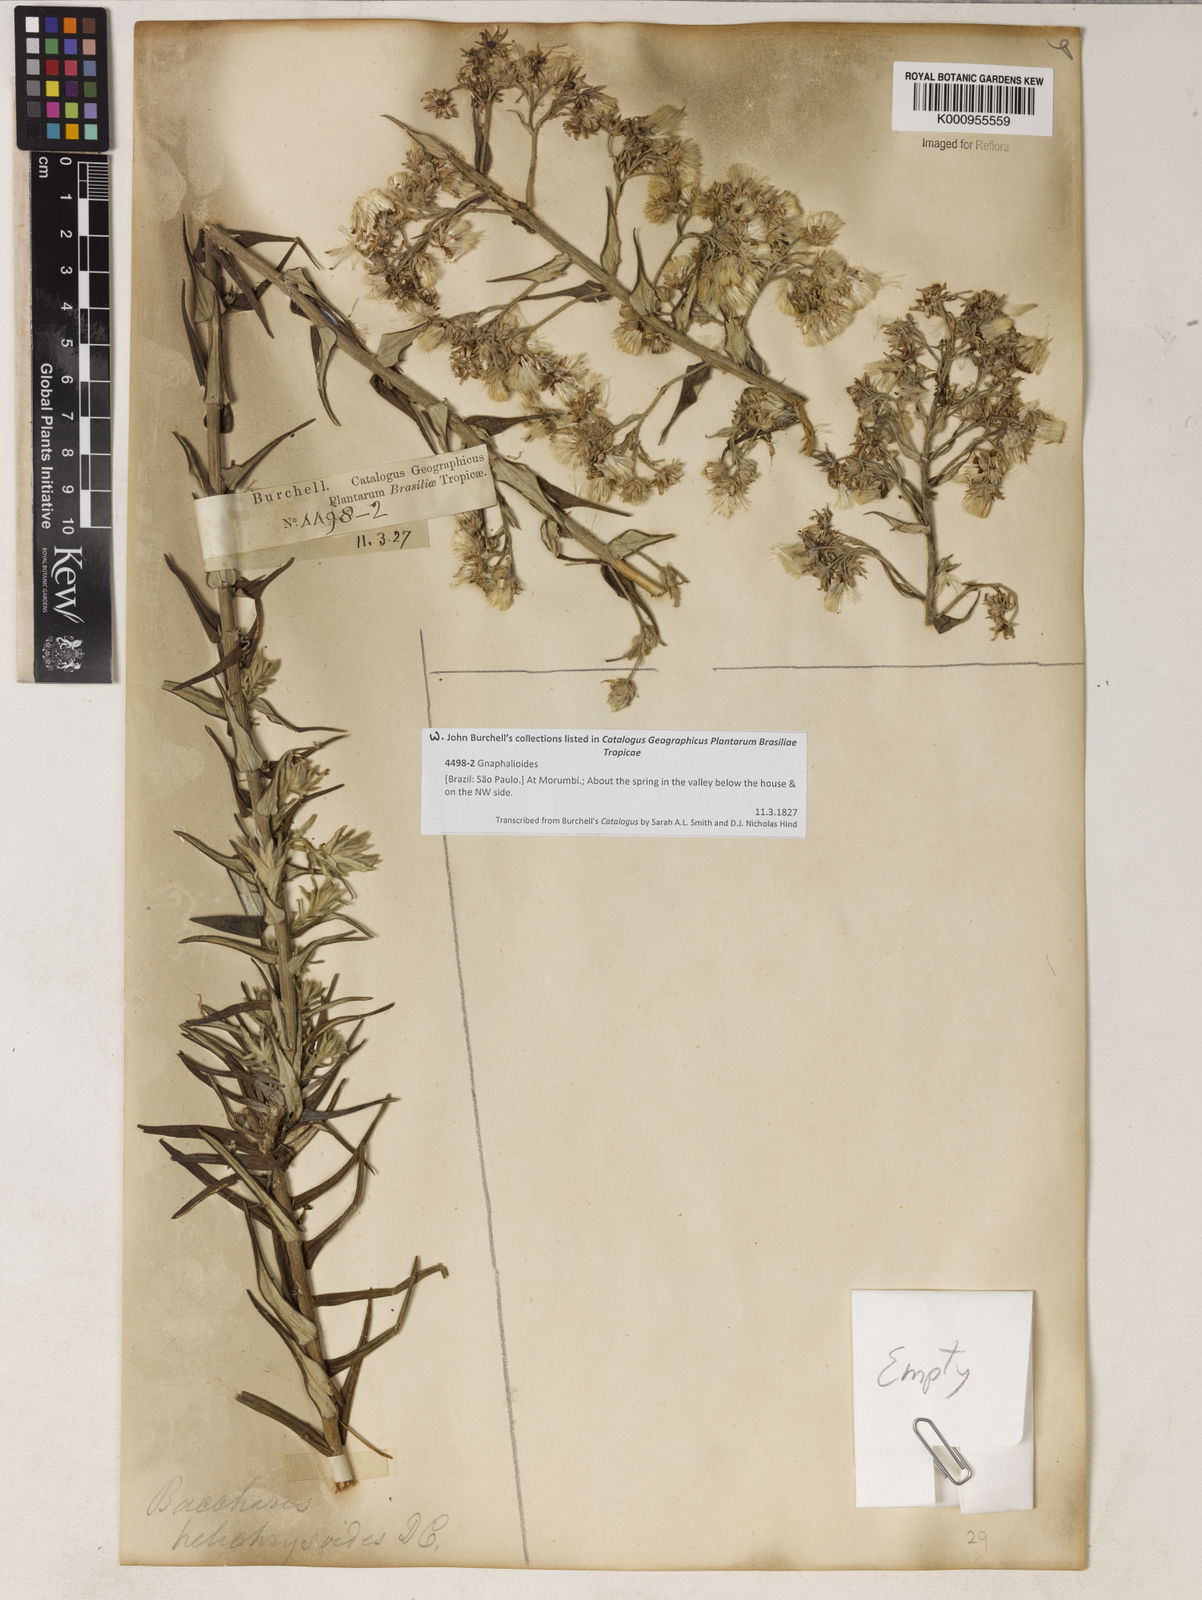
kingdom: Plantae
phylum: Tracheophyta
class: Magnoliopsida
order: Asterales
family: Asteraceae
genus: Baccharis
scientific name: Baccharis helichrysoides
